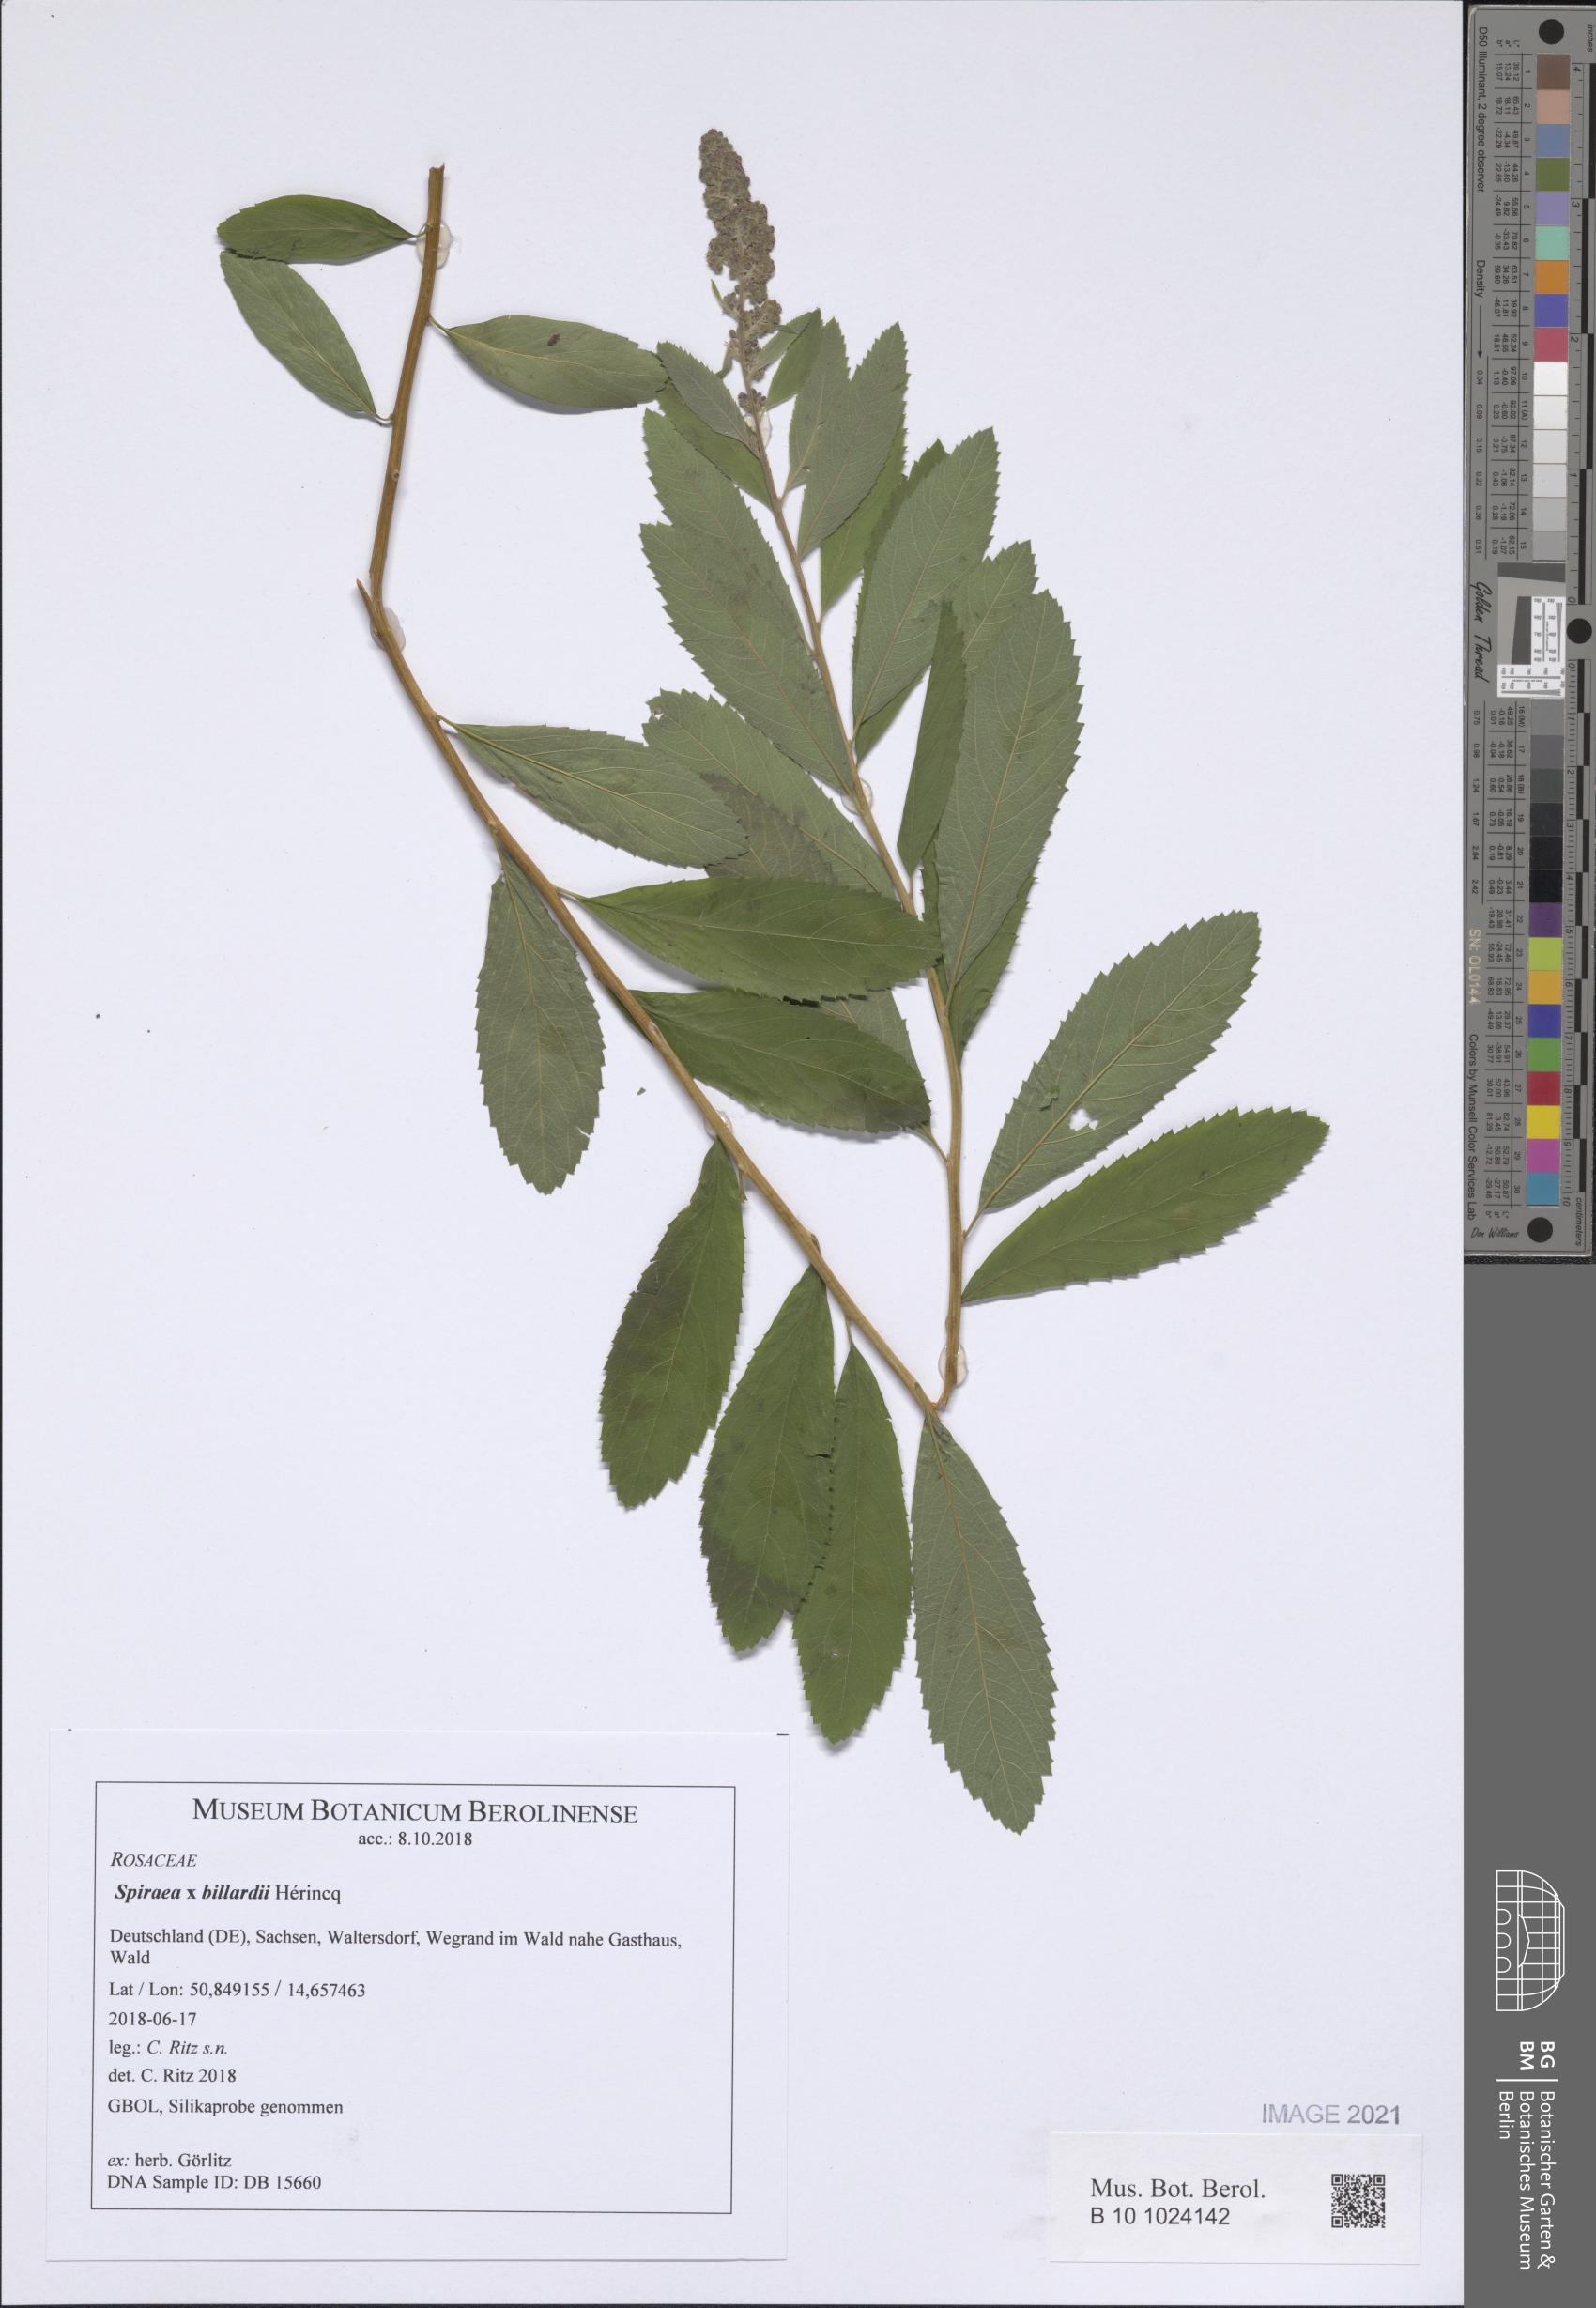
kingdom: Plantae
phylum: Tracheophyta
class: Magnoliopsida
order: Rosales
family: Rosaceae
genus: Spiraea
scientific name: Spiraea billardii
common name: Billard's bridewort
